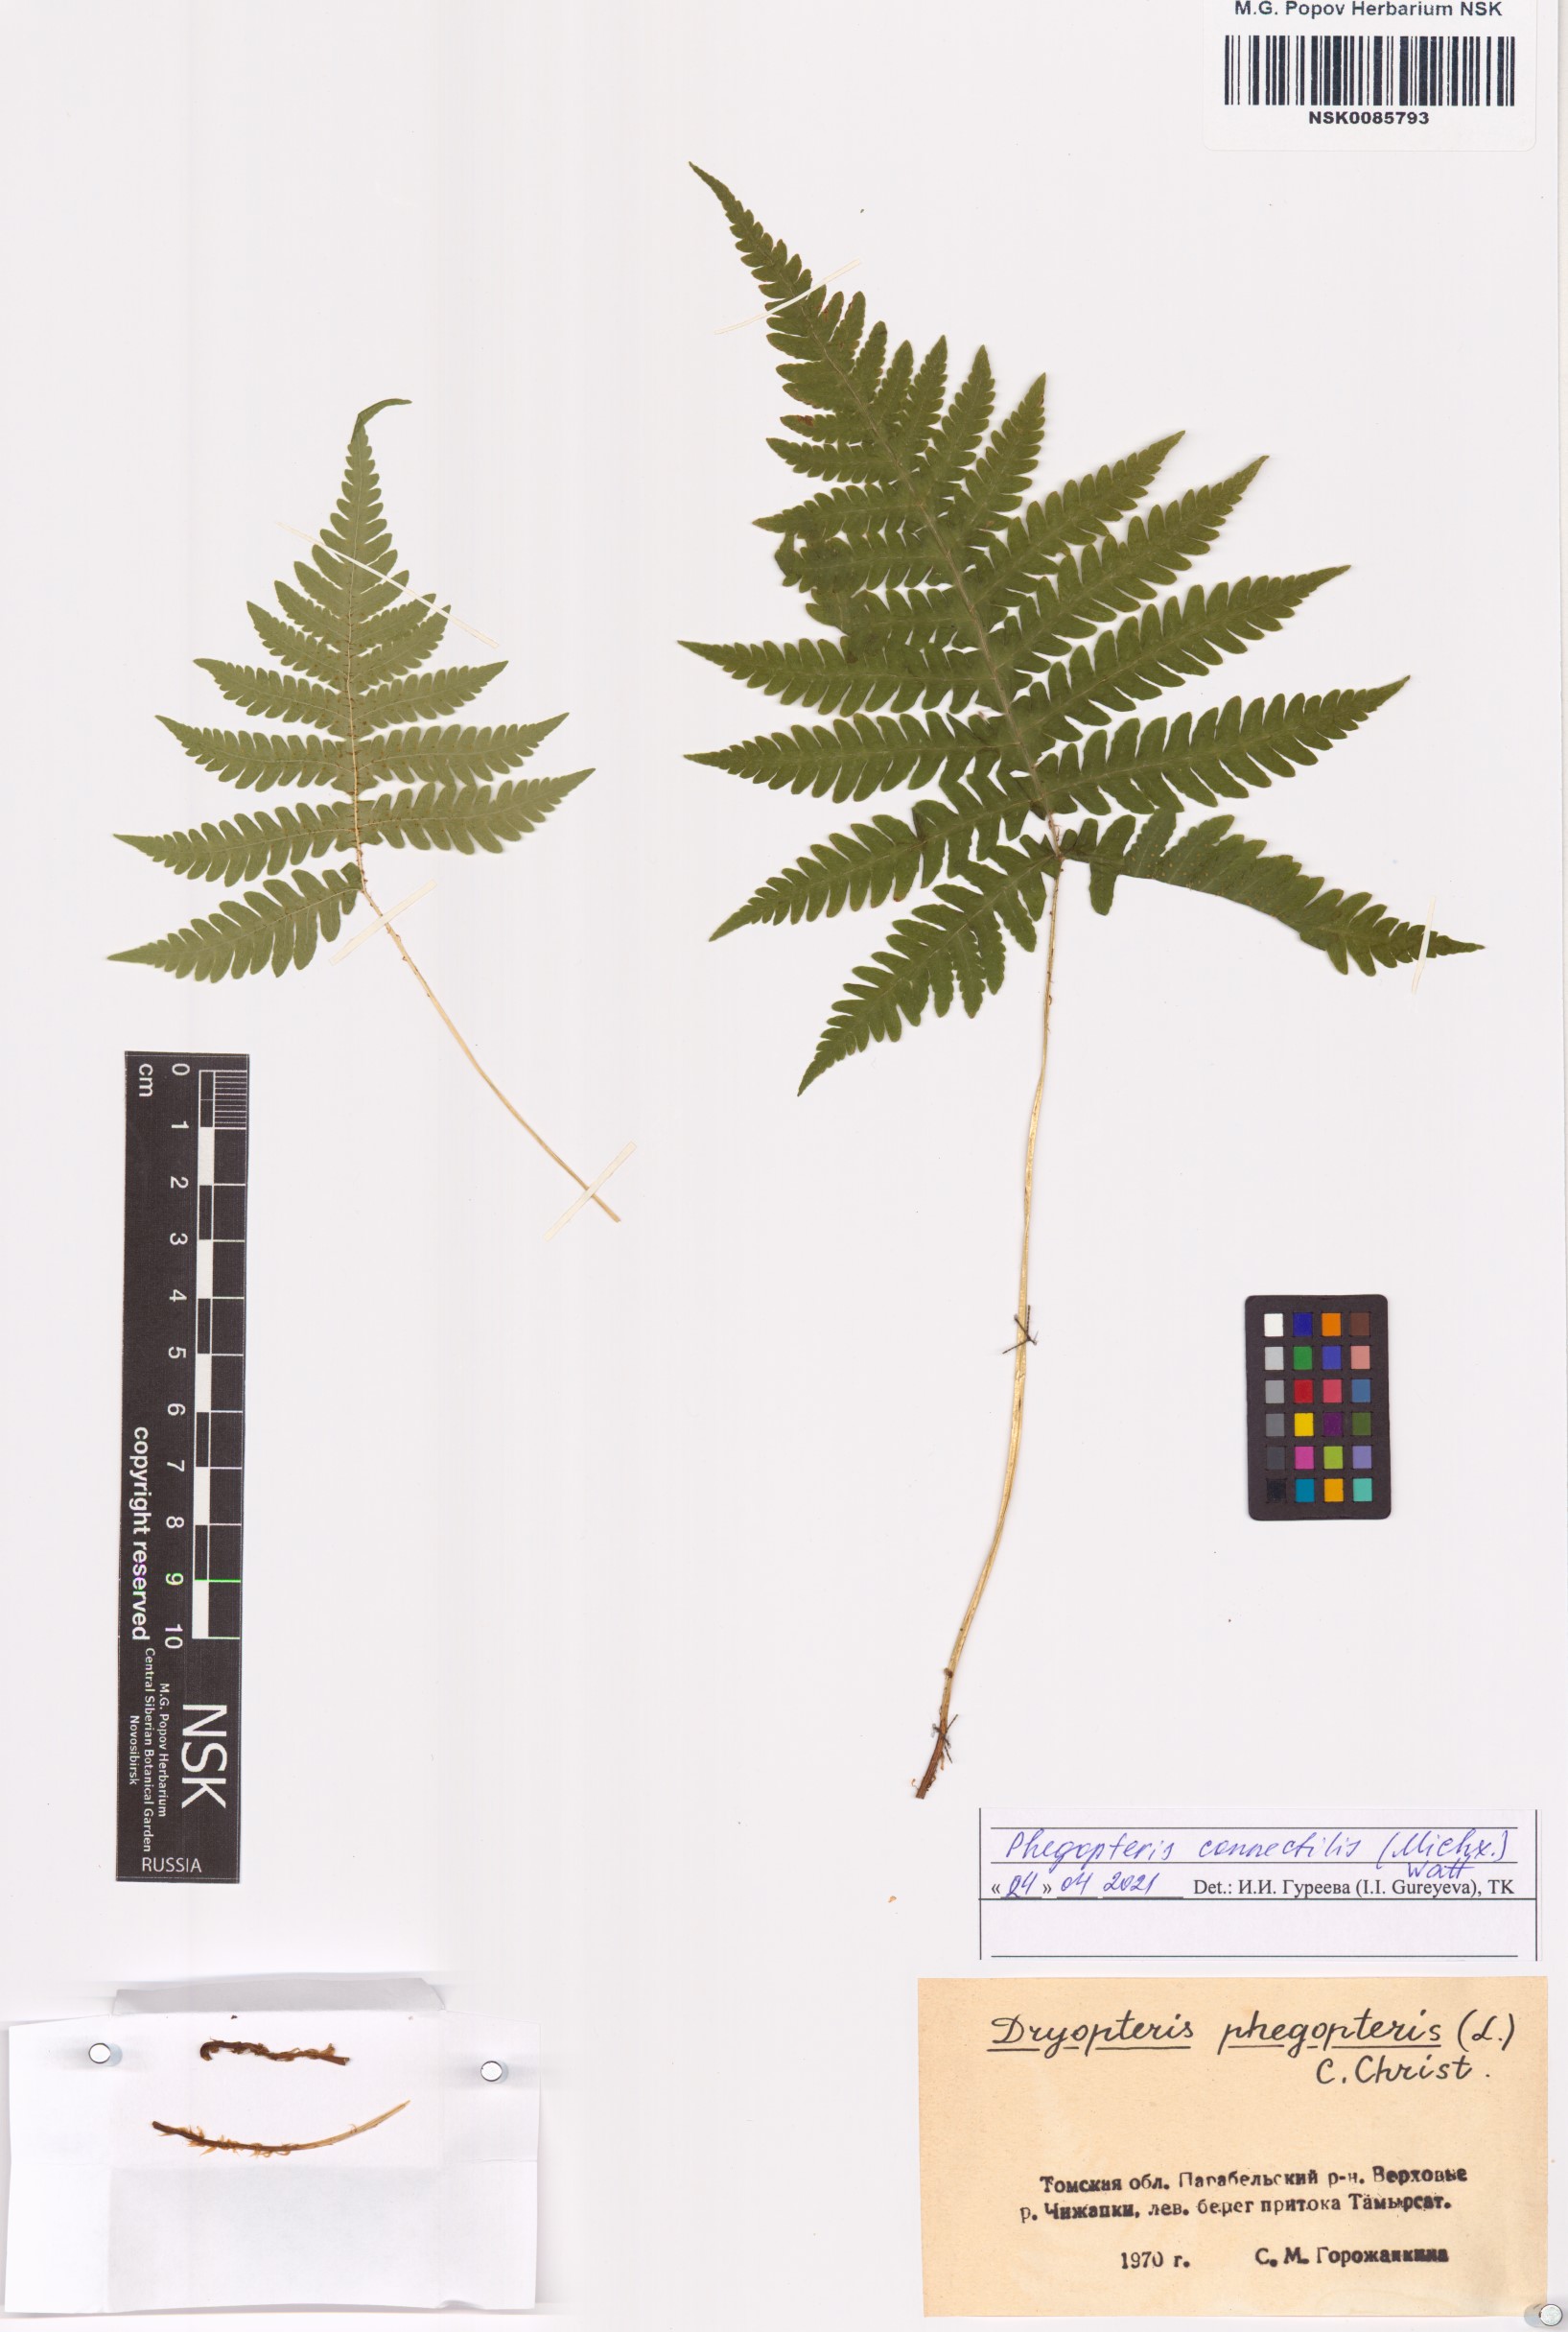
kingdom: Plantae
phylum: Tracheophyta
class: Polypodiopsida
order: Polypodiales
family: Thelypteridaceae
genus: Phegopteris
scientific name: Phegopteris connectilis
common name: Beech fern
